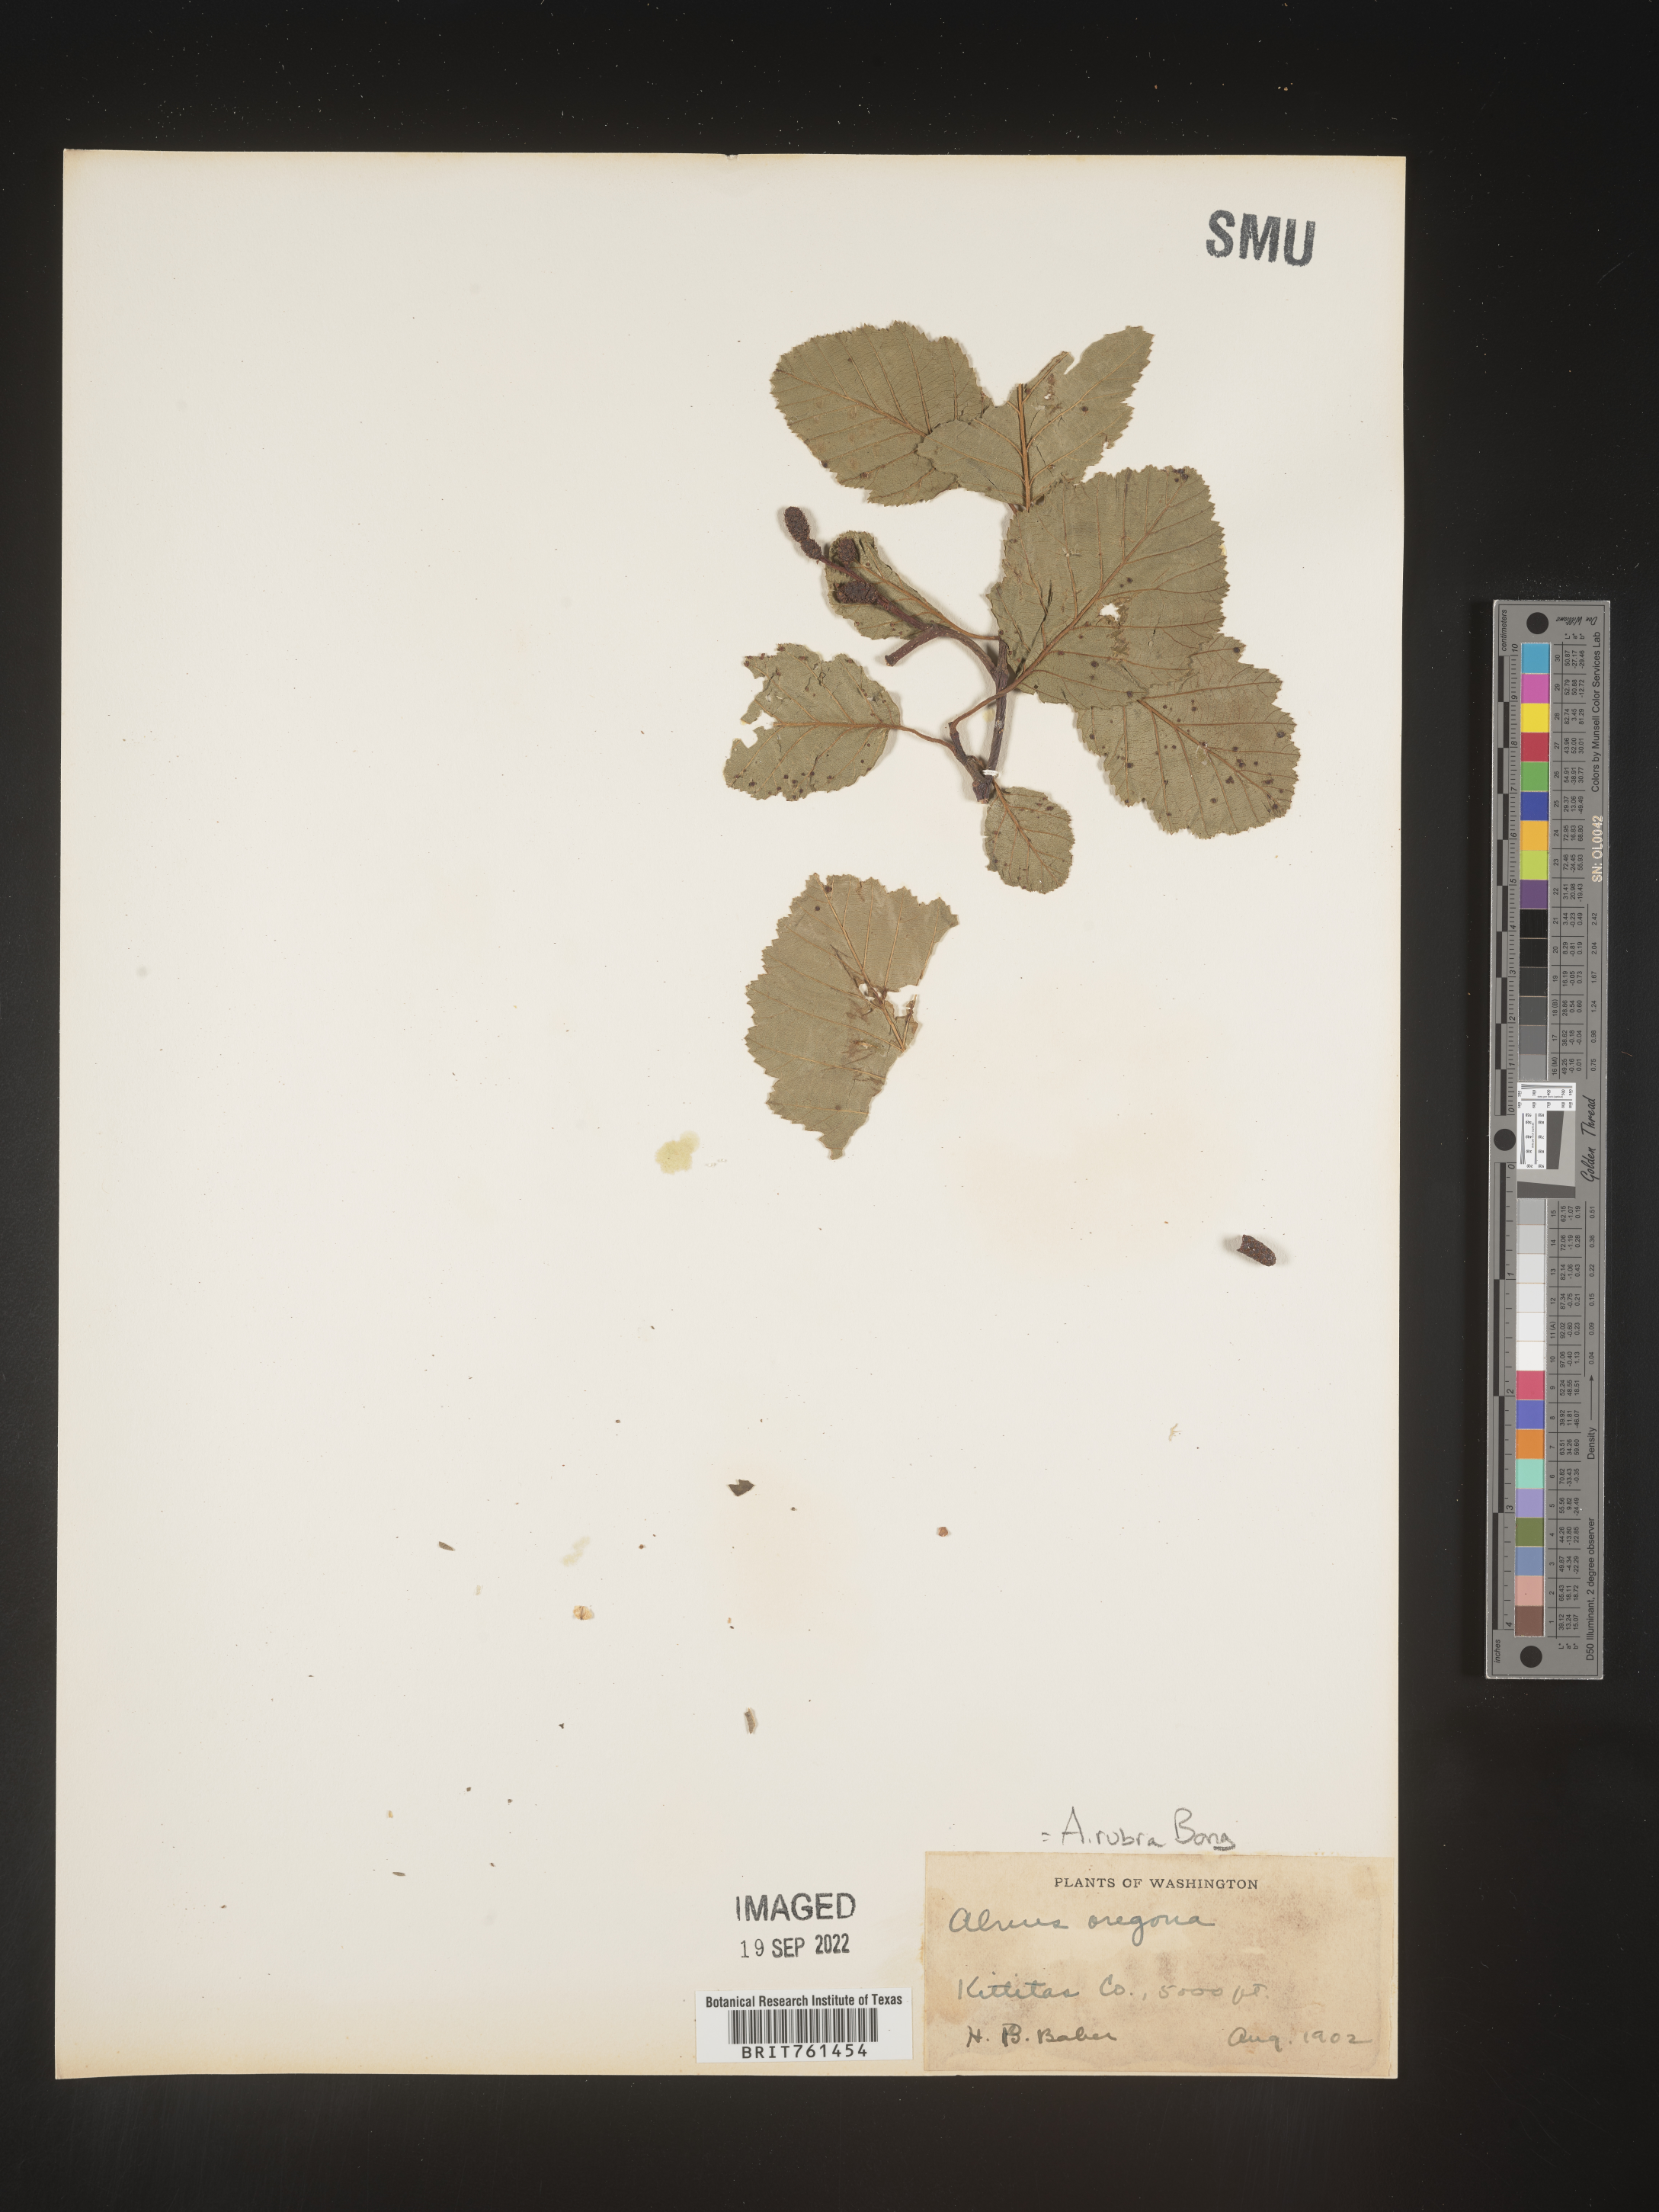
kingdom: Plantae
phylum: Tracheophyta
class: Magnoliopsida
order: Fagales
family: Betulaceae
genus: Alnus
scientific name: Alnus rubra
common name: Red alder
